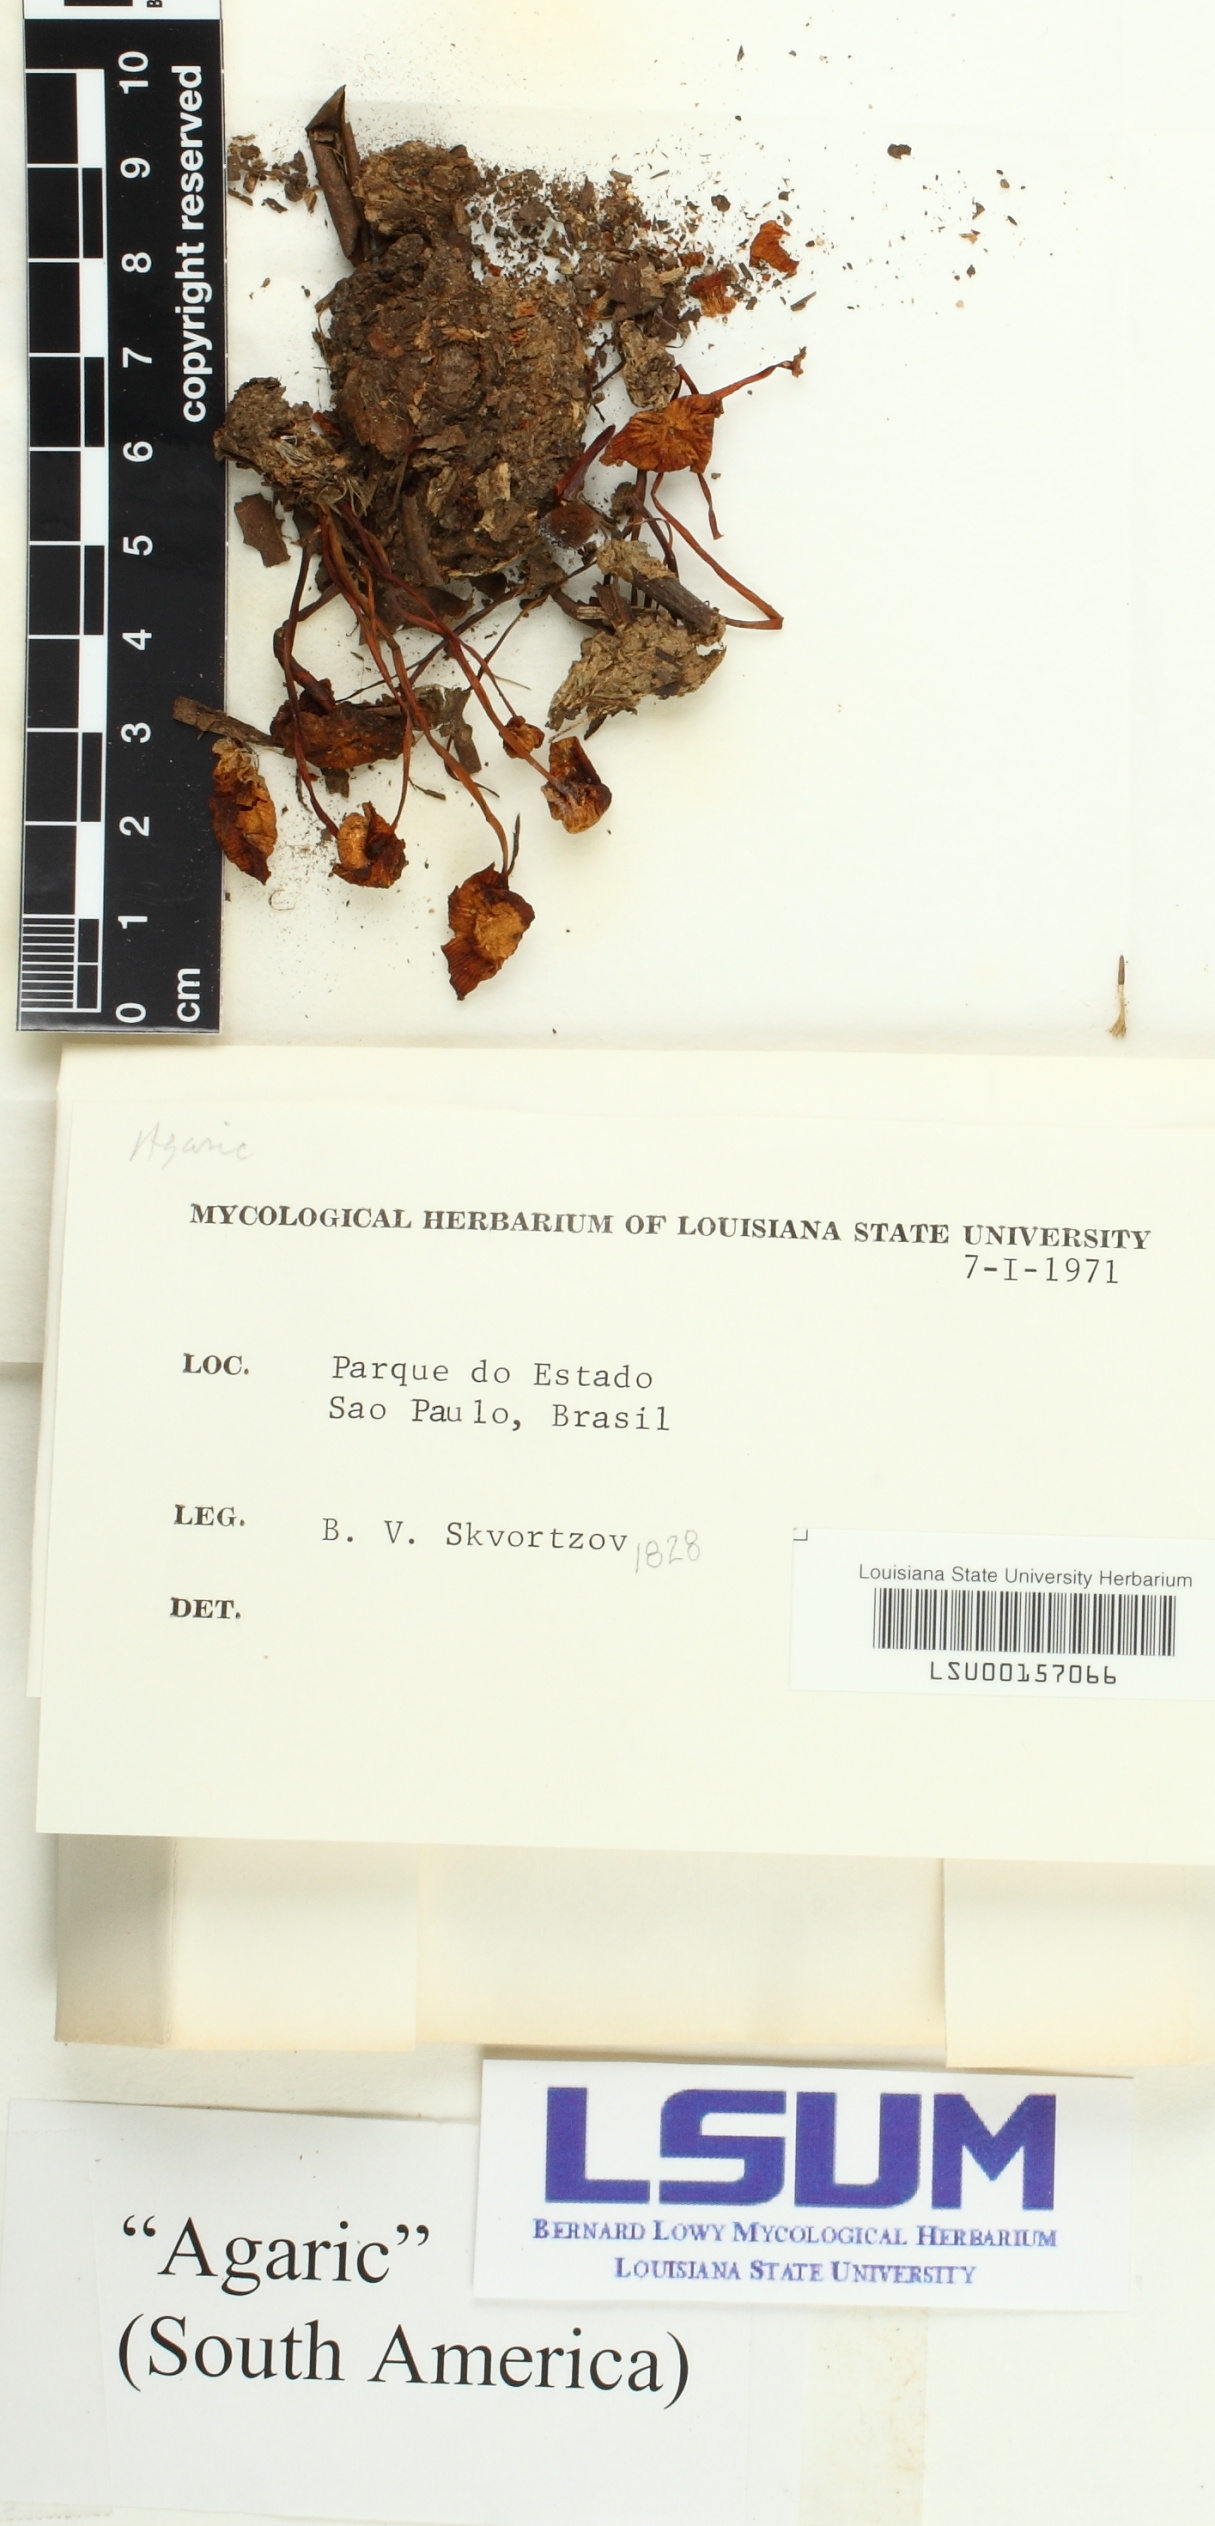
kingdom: Fungi
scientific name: Fungi
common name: Fungi
